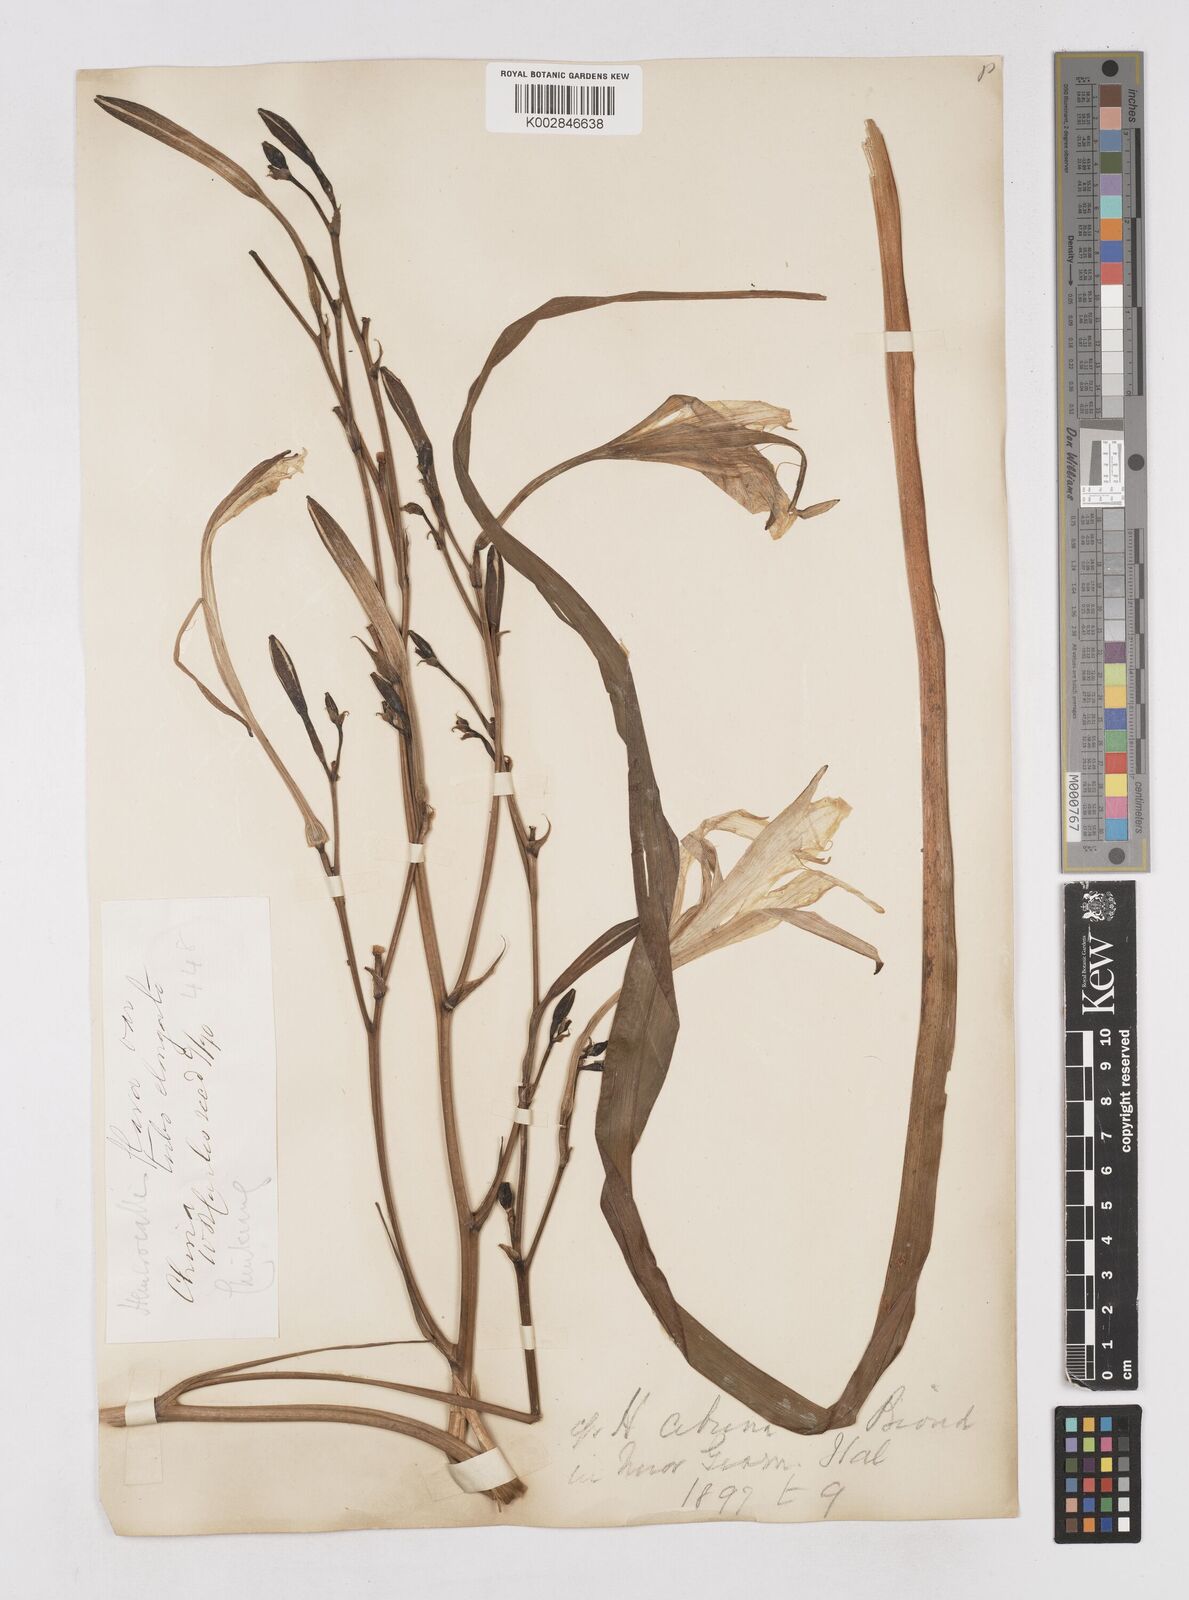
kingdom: Plantae
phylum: Tracheophyta
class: Liliopsida
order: Asparagales
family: Asphodelaceae
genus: Hemerocallis
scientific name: Hemerocallis citrina
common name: Citron day-lily
